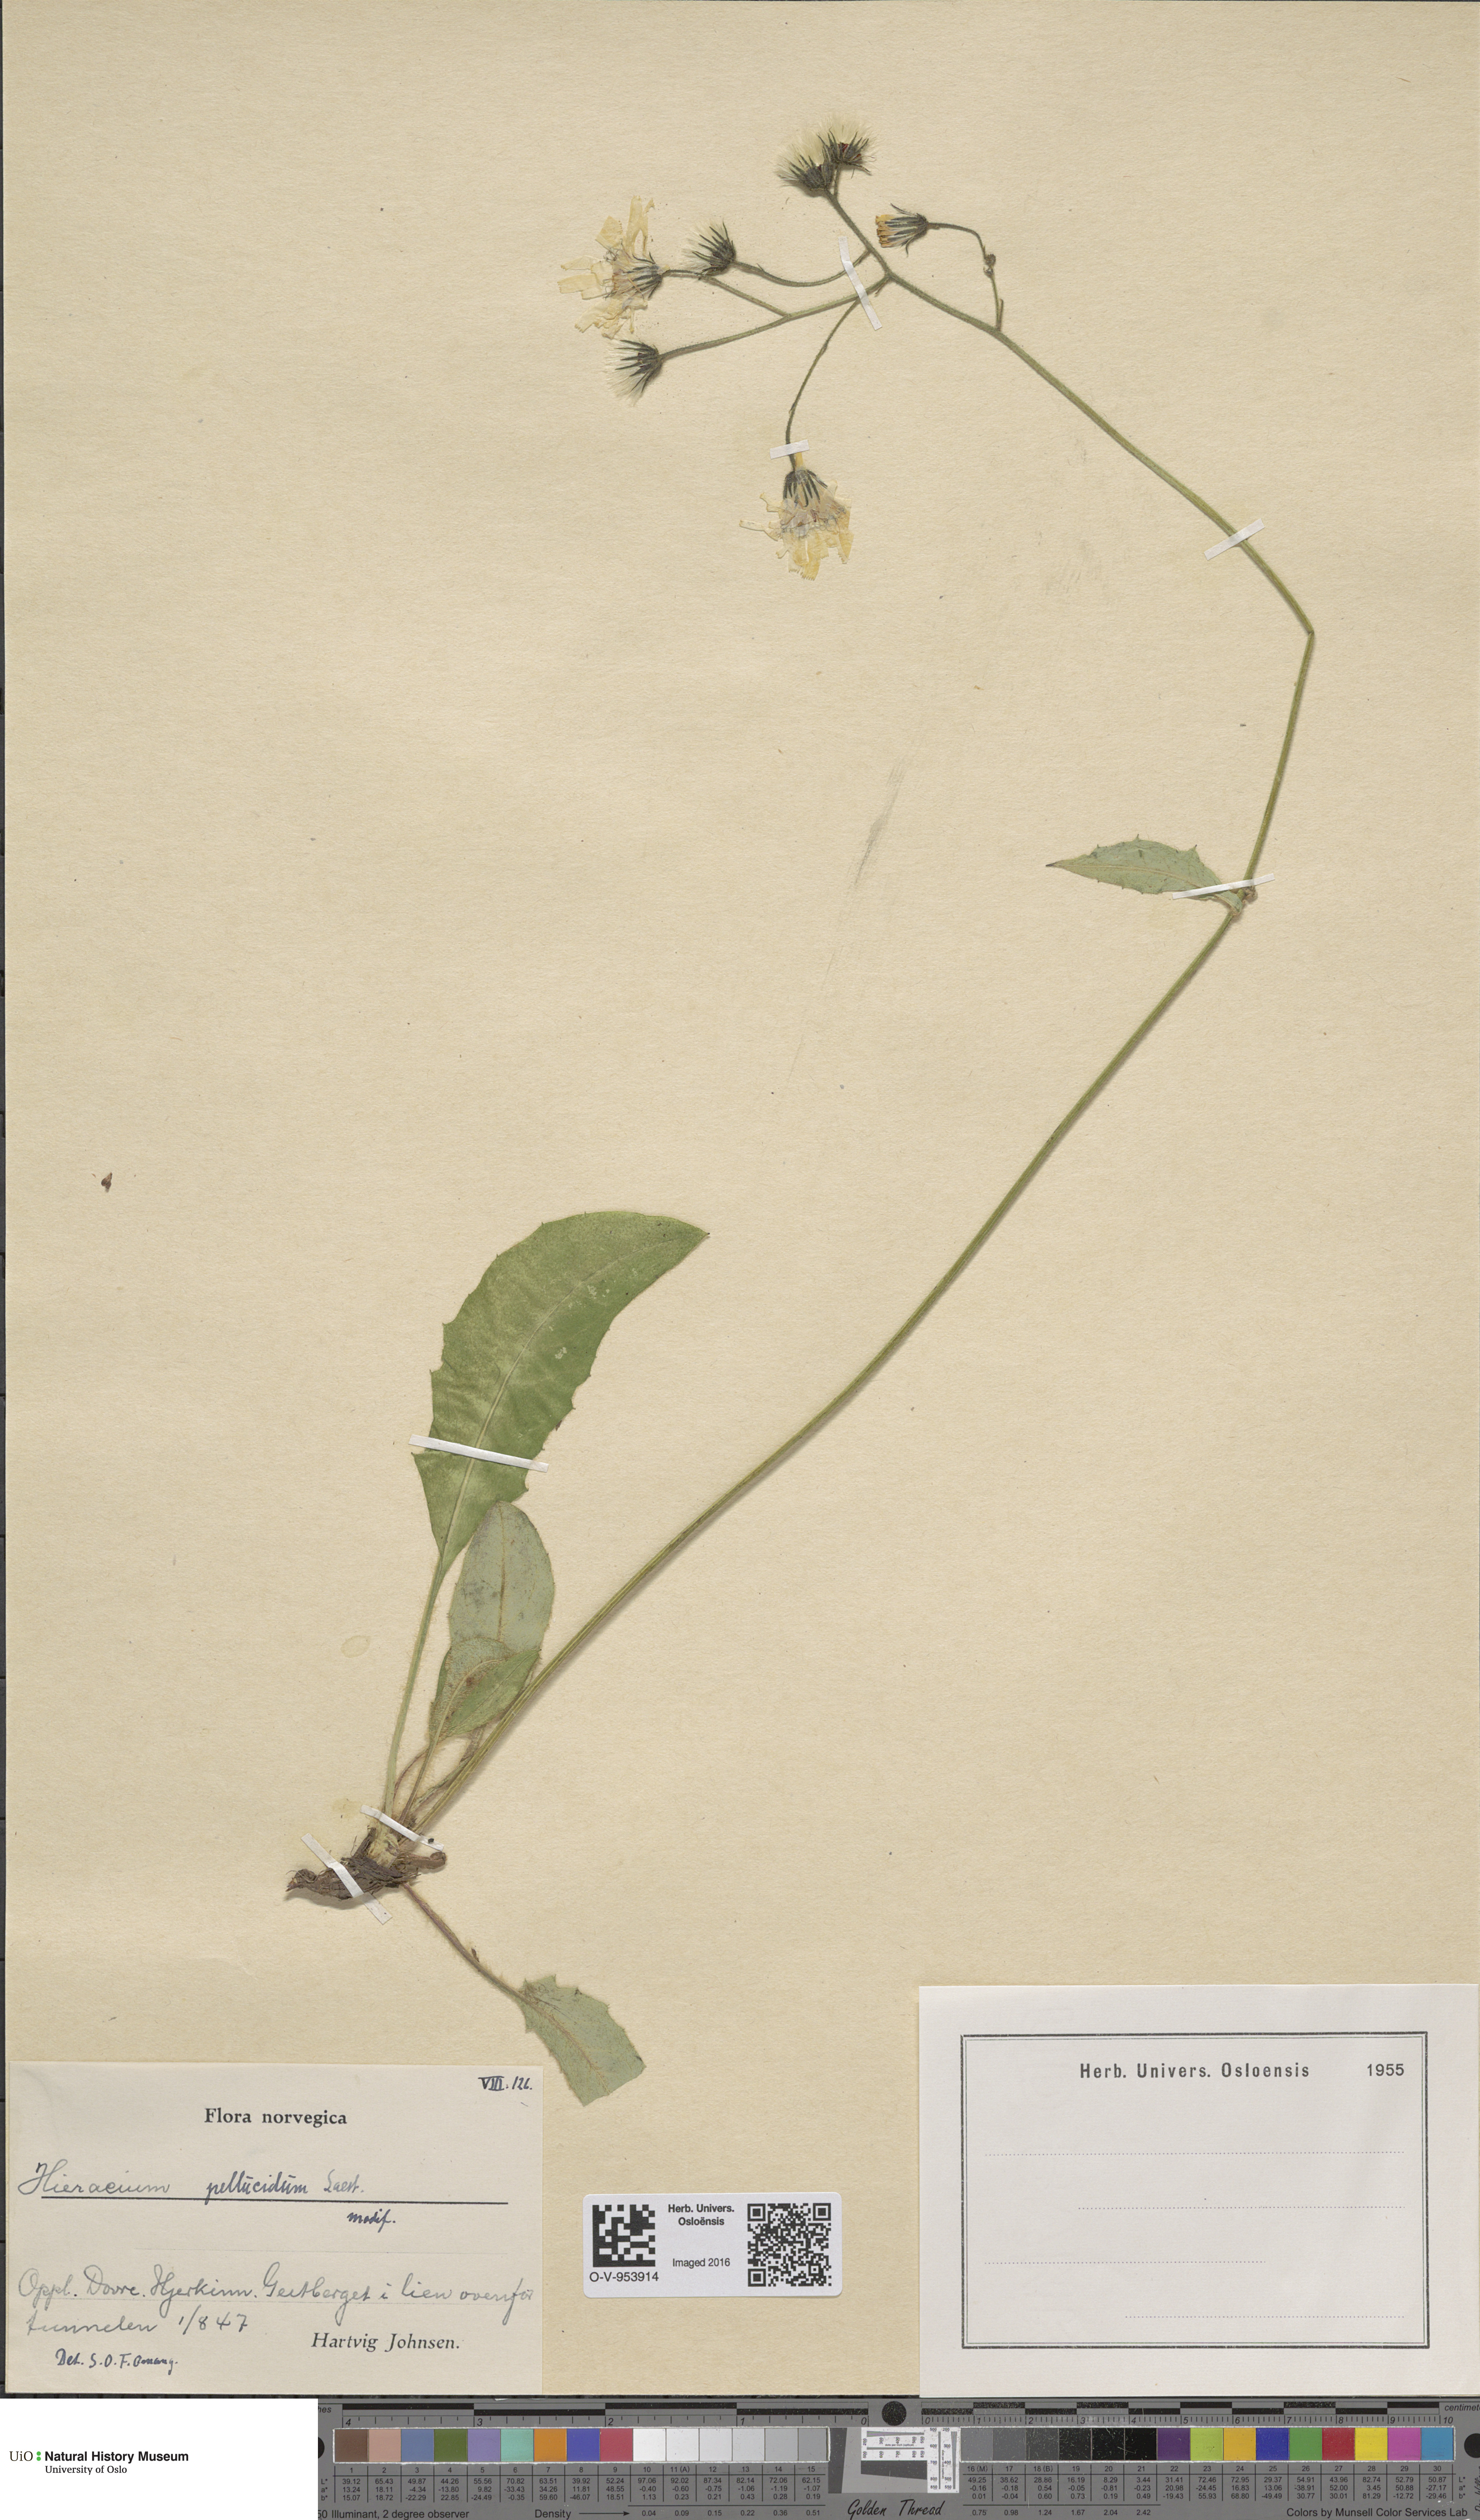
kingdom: Plantae
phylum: Tracheophyta
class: Magnoliopsida
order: Asterales
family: Asteraceae
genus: Hieracium
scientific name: Hieracium
